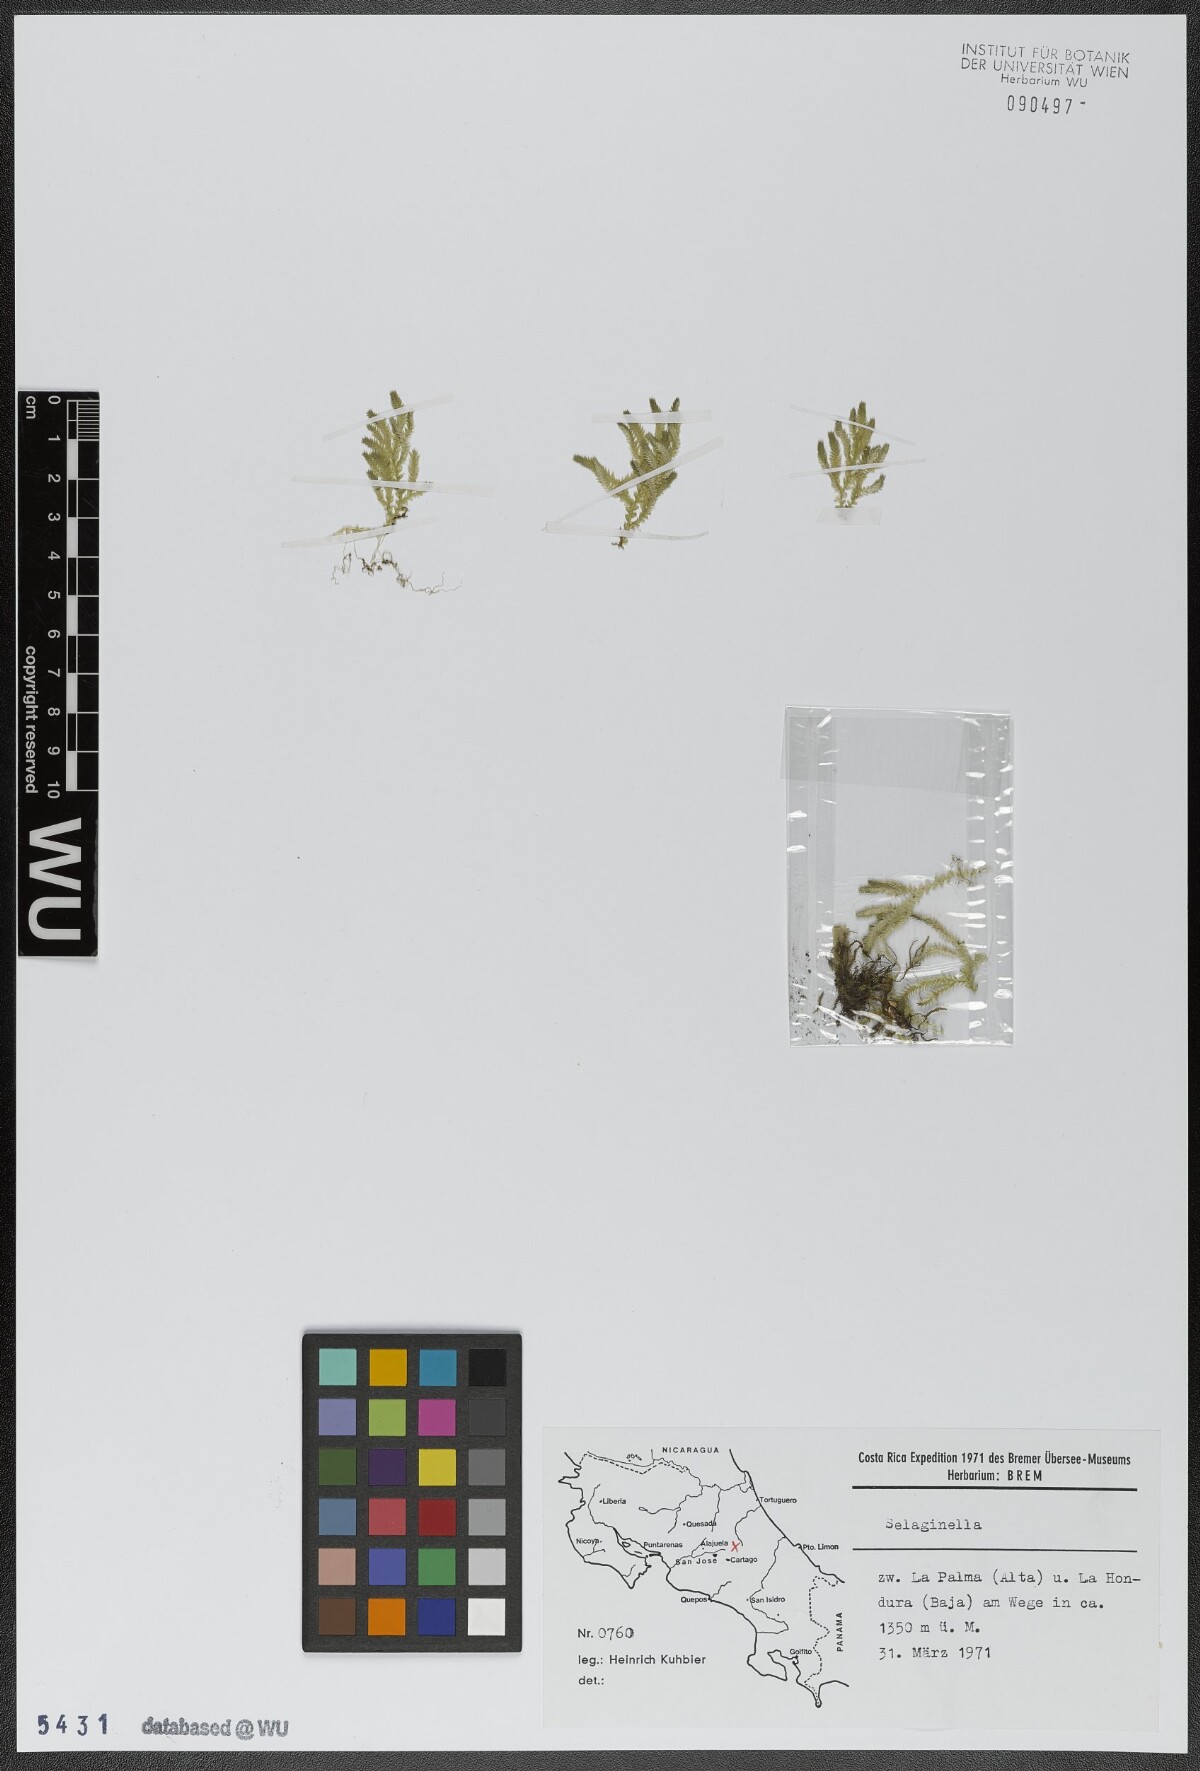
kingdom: Plantae
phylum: Tracheophyta
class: Lycopodiopsida
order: Selaginellales
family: Selaginellaceae
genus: Selaginella
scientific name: Selaginella
